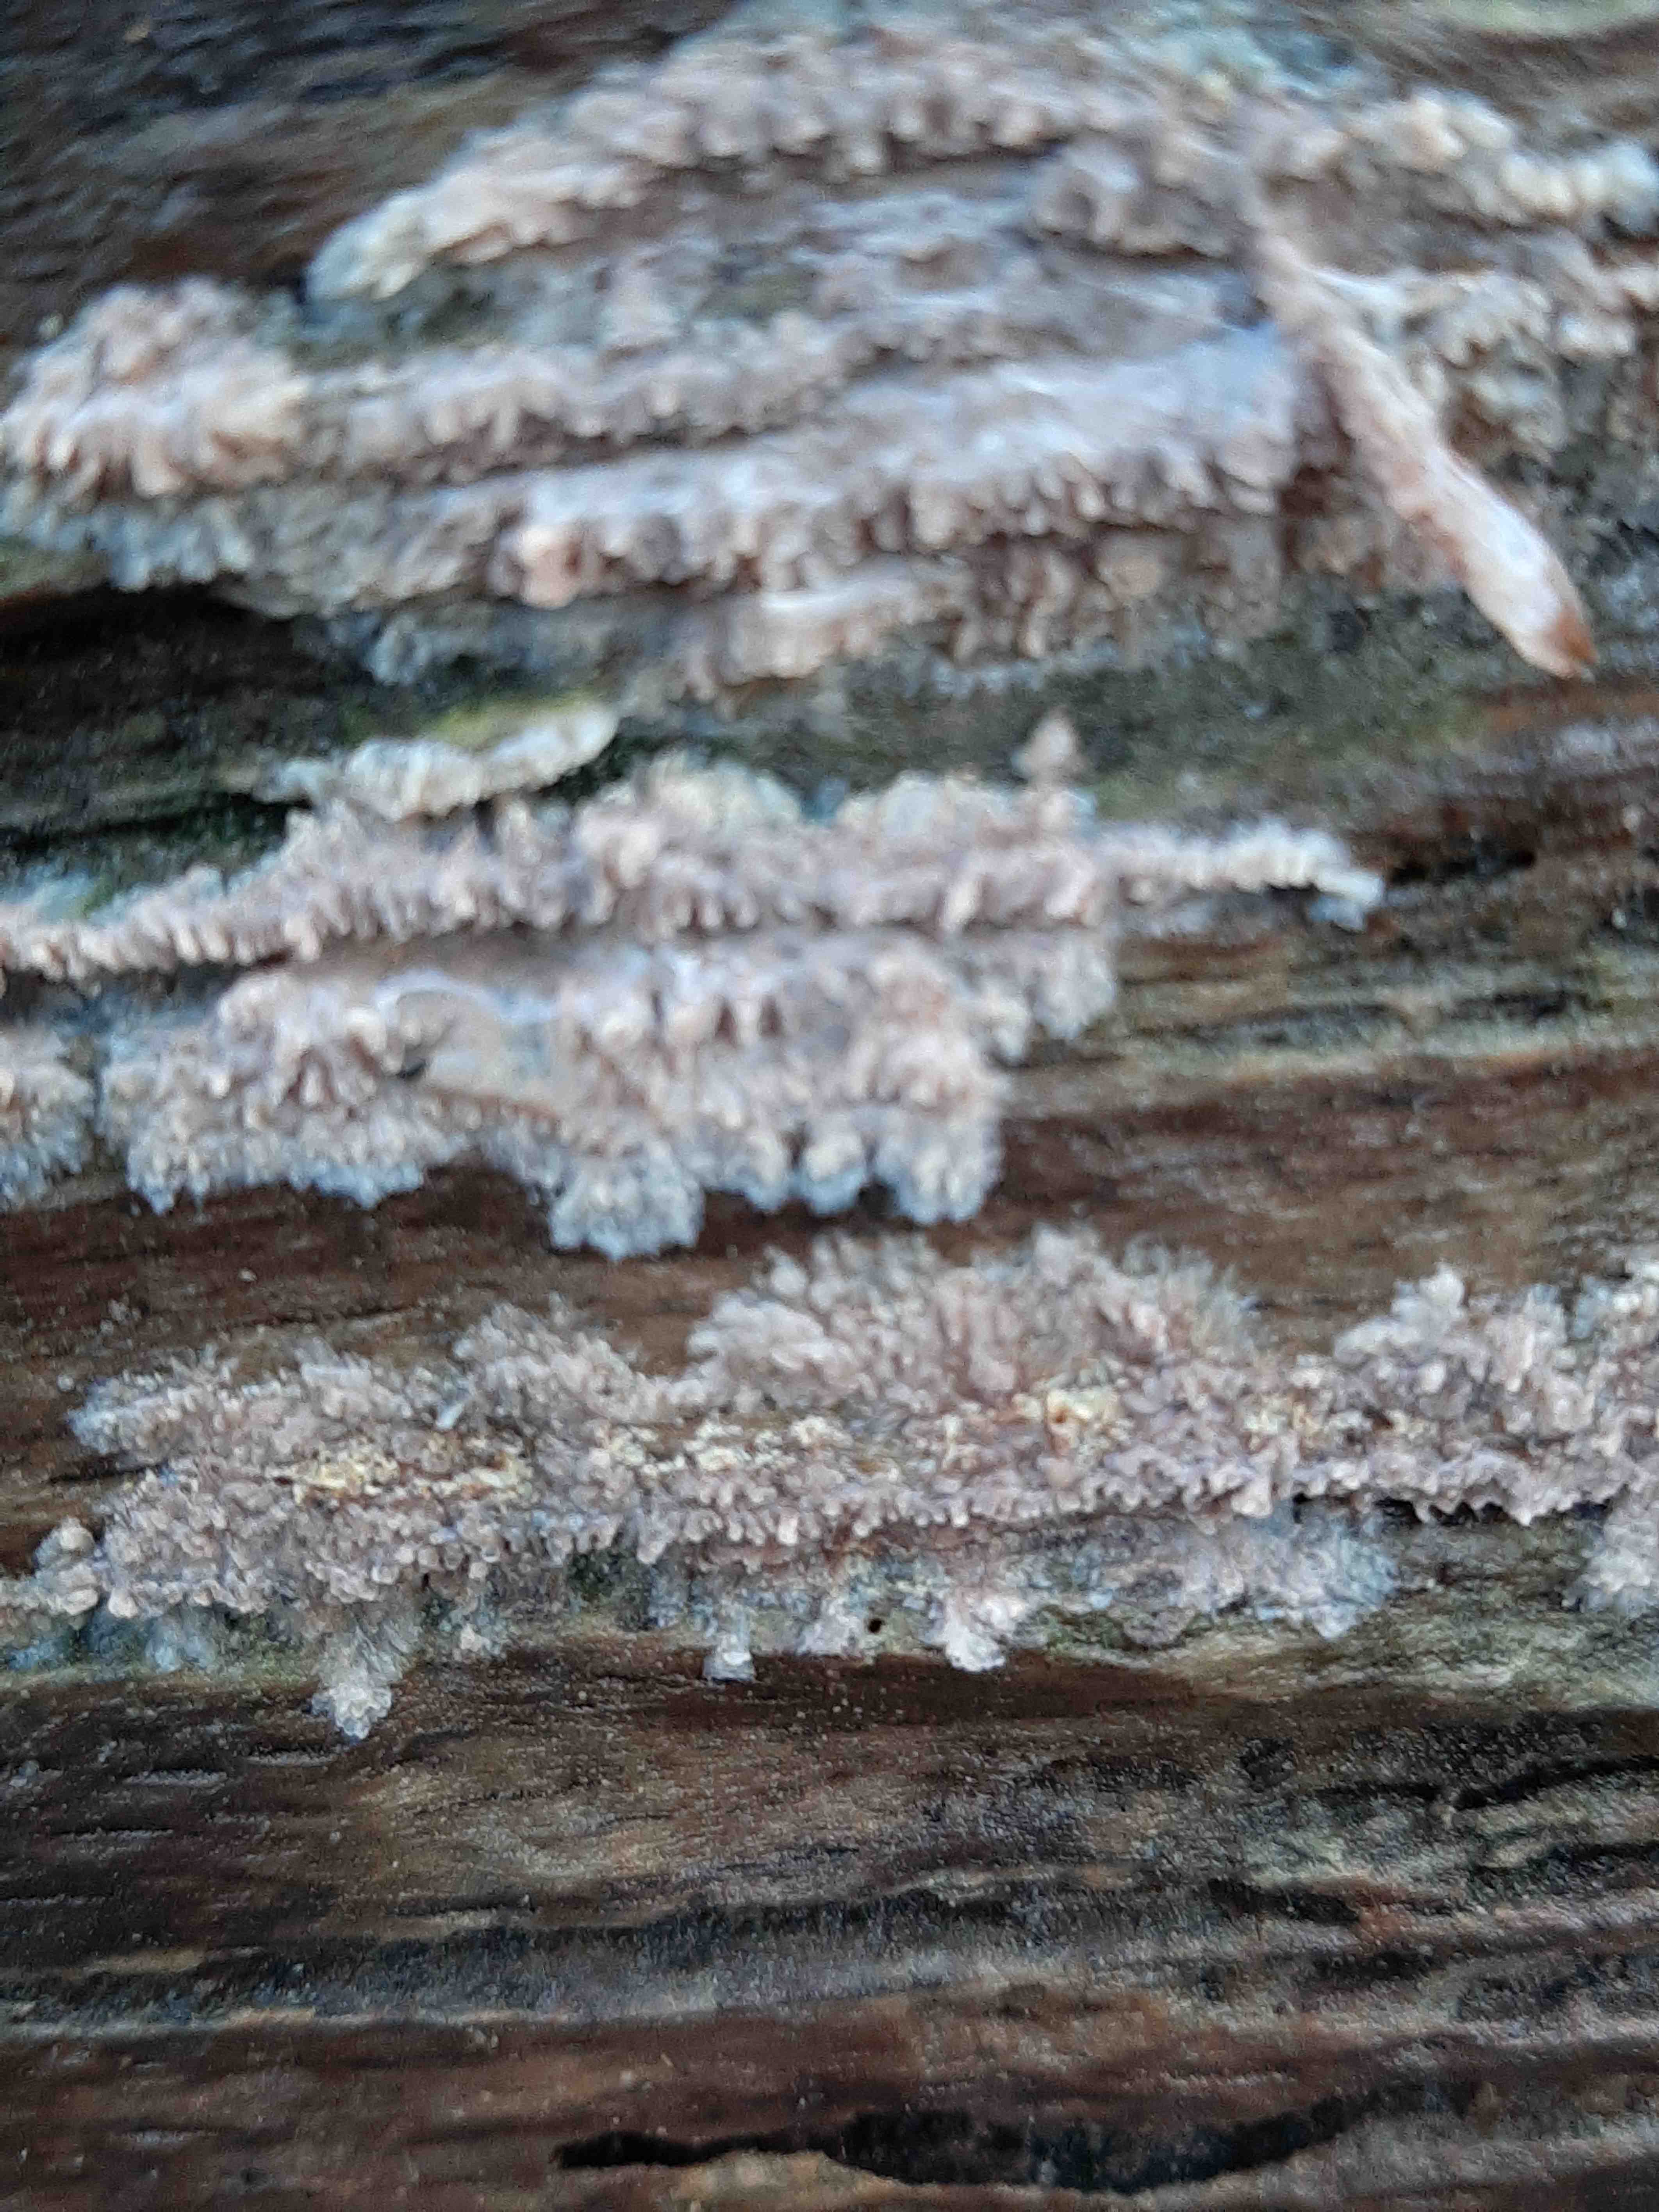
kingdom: Fungi
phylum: Basidiomycota
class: Agaricomycetes
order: Polyporales
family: Meruliaceae
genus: Phlebia
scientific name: Phlebia radiata
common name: stråle-åresvamp
